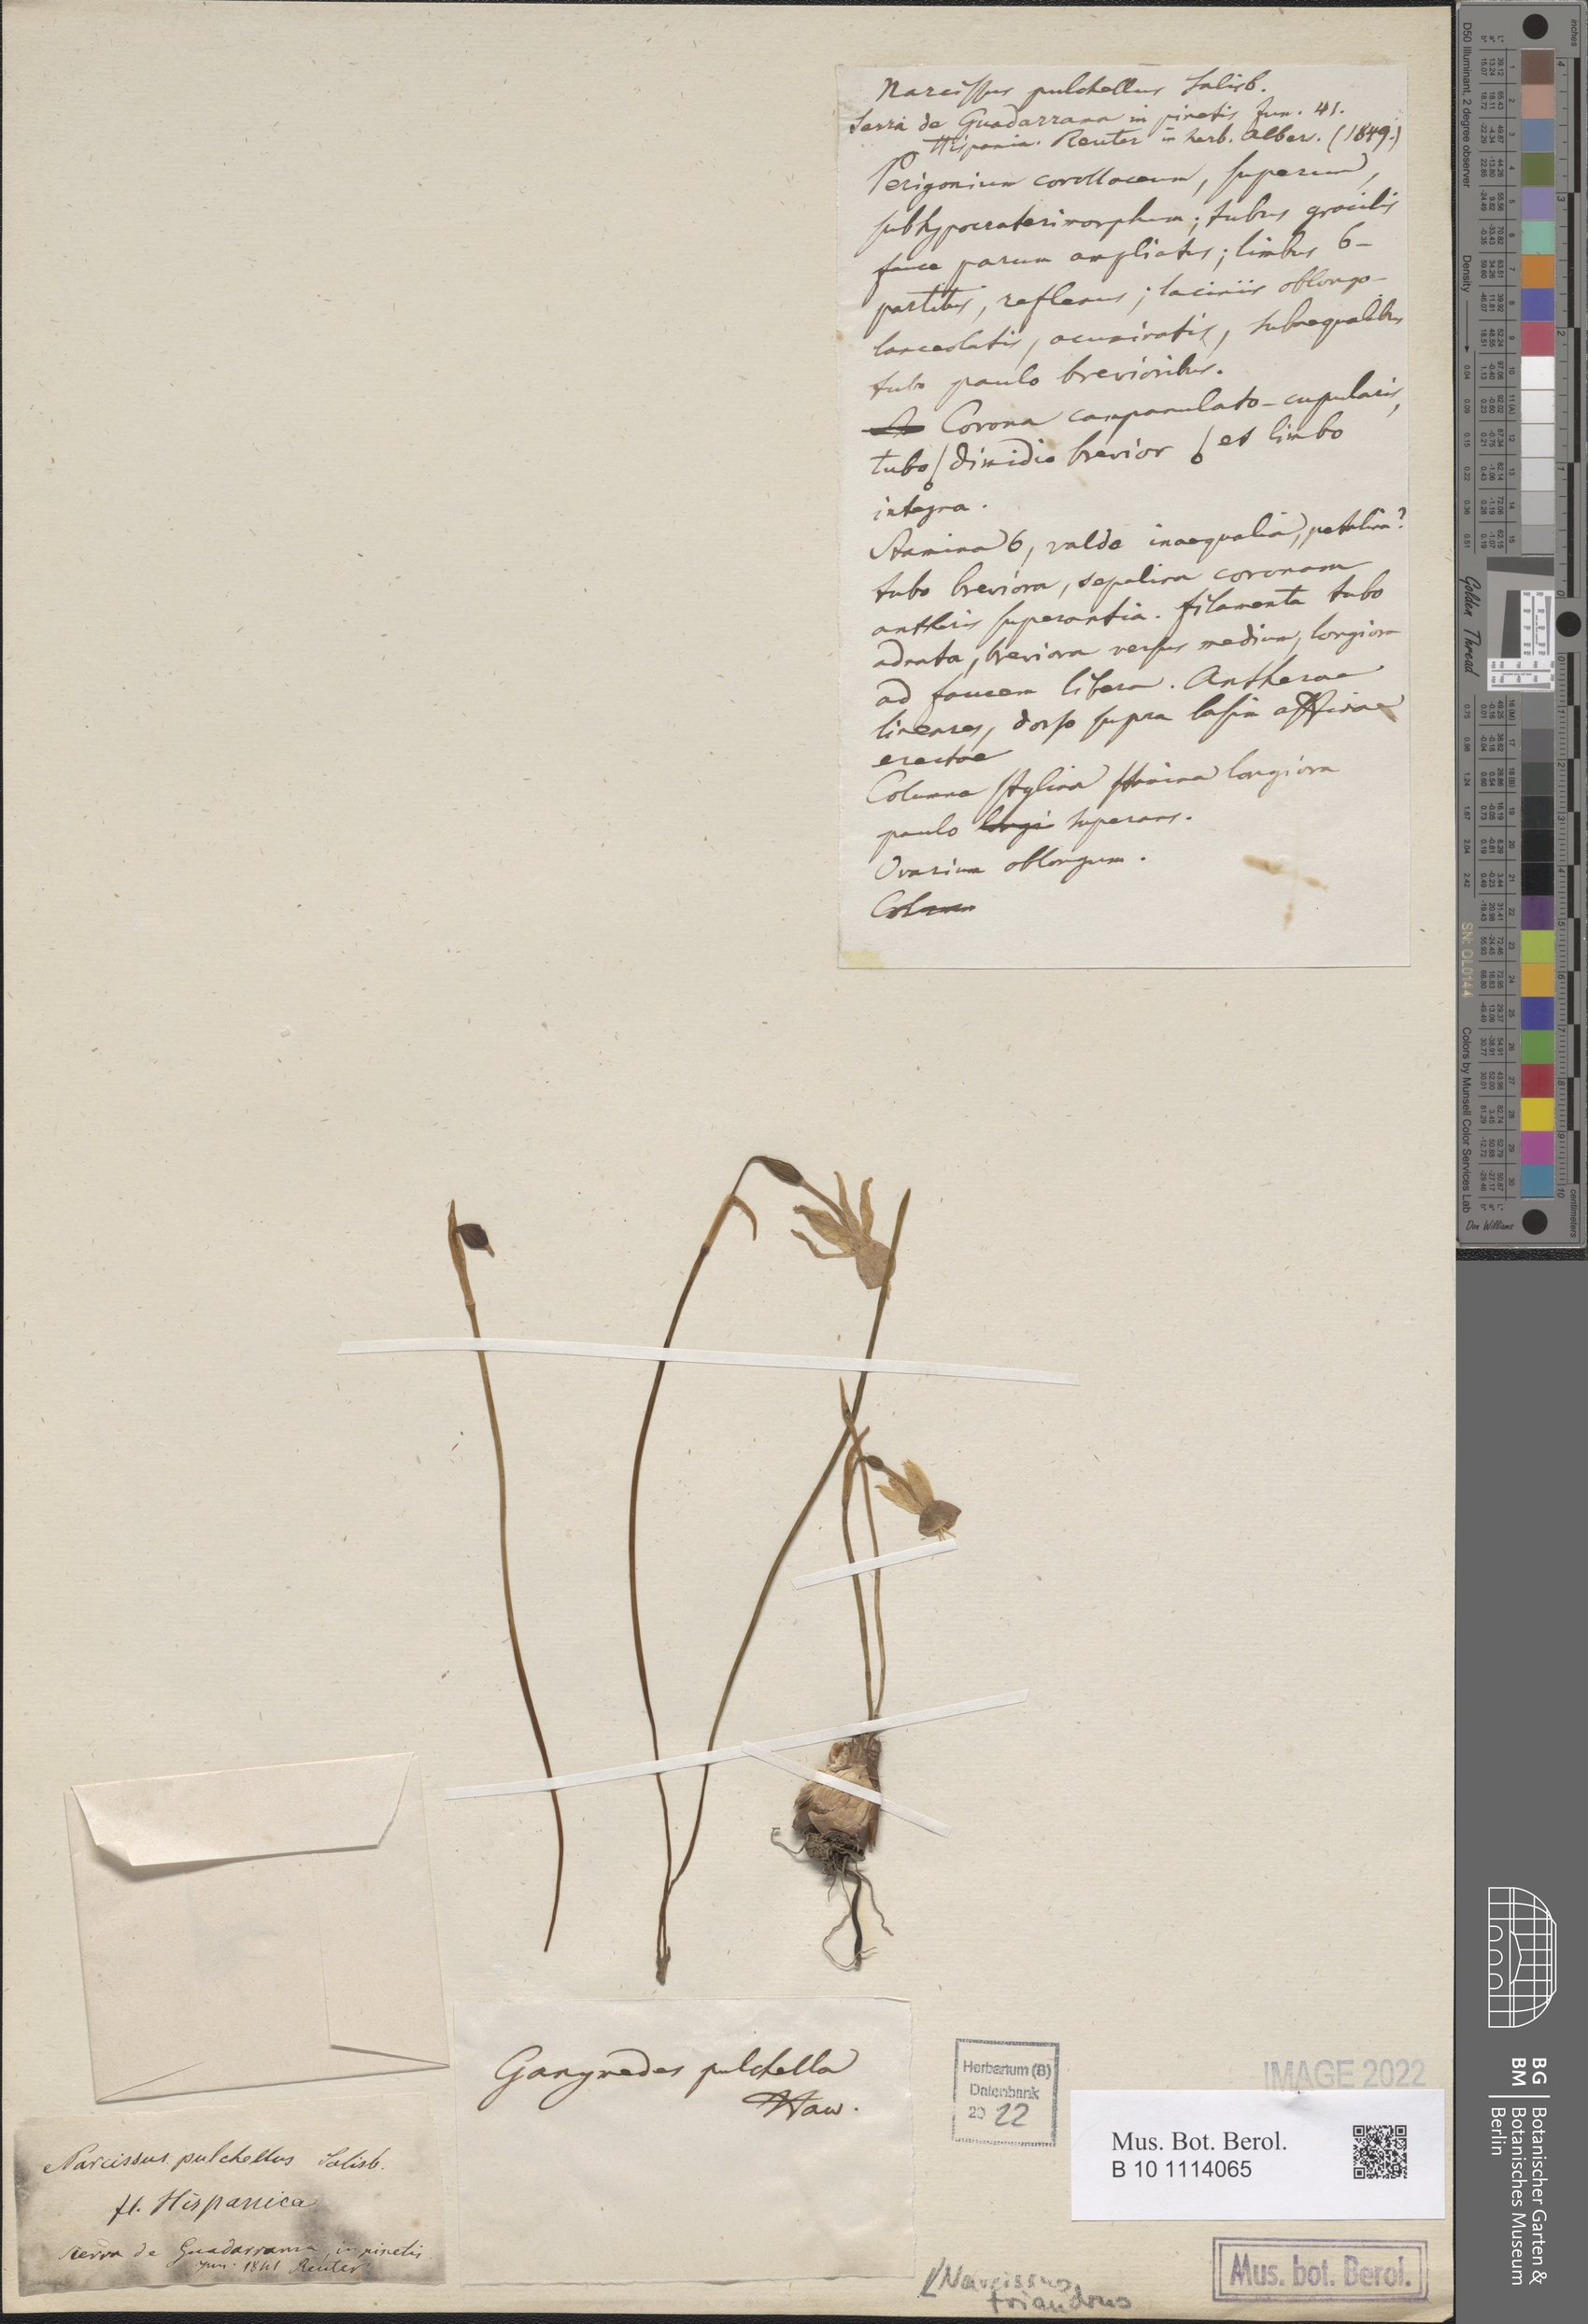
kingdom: Plantae
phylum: Tracheophyta
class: Liliopsida
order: Asparagales
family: Amaryllidaceae
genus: Narcissus
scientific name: Narcissus triandrus
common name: Angel's-tears
